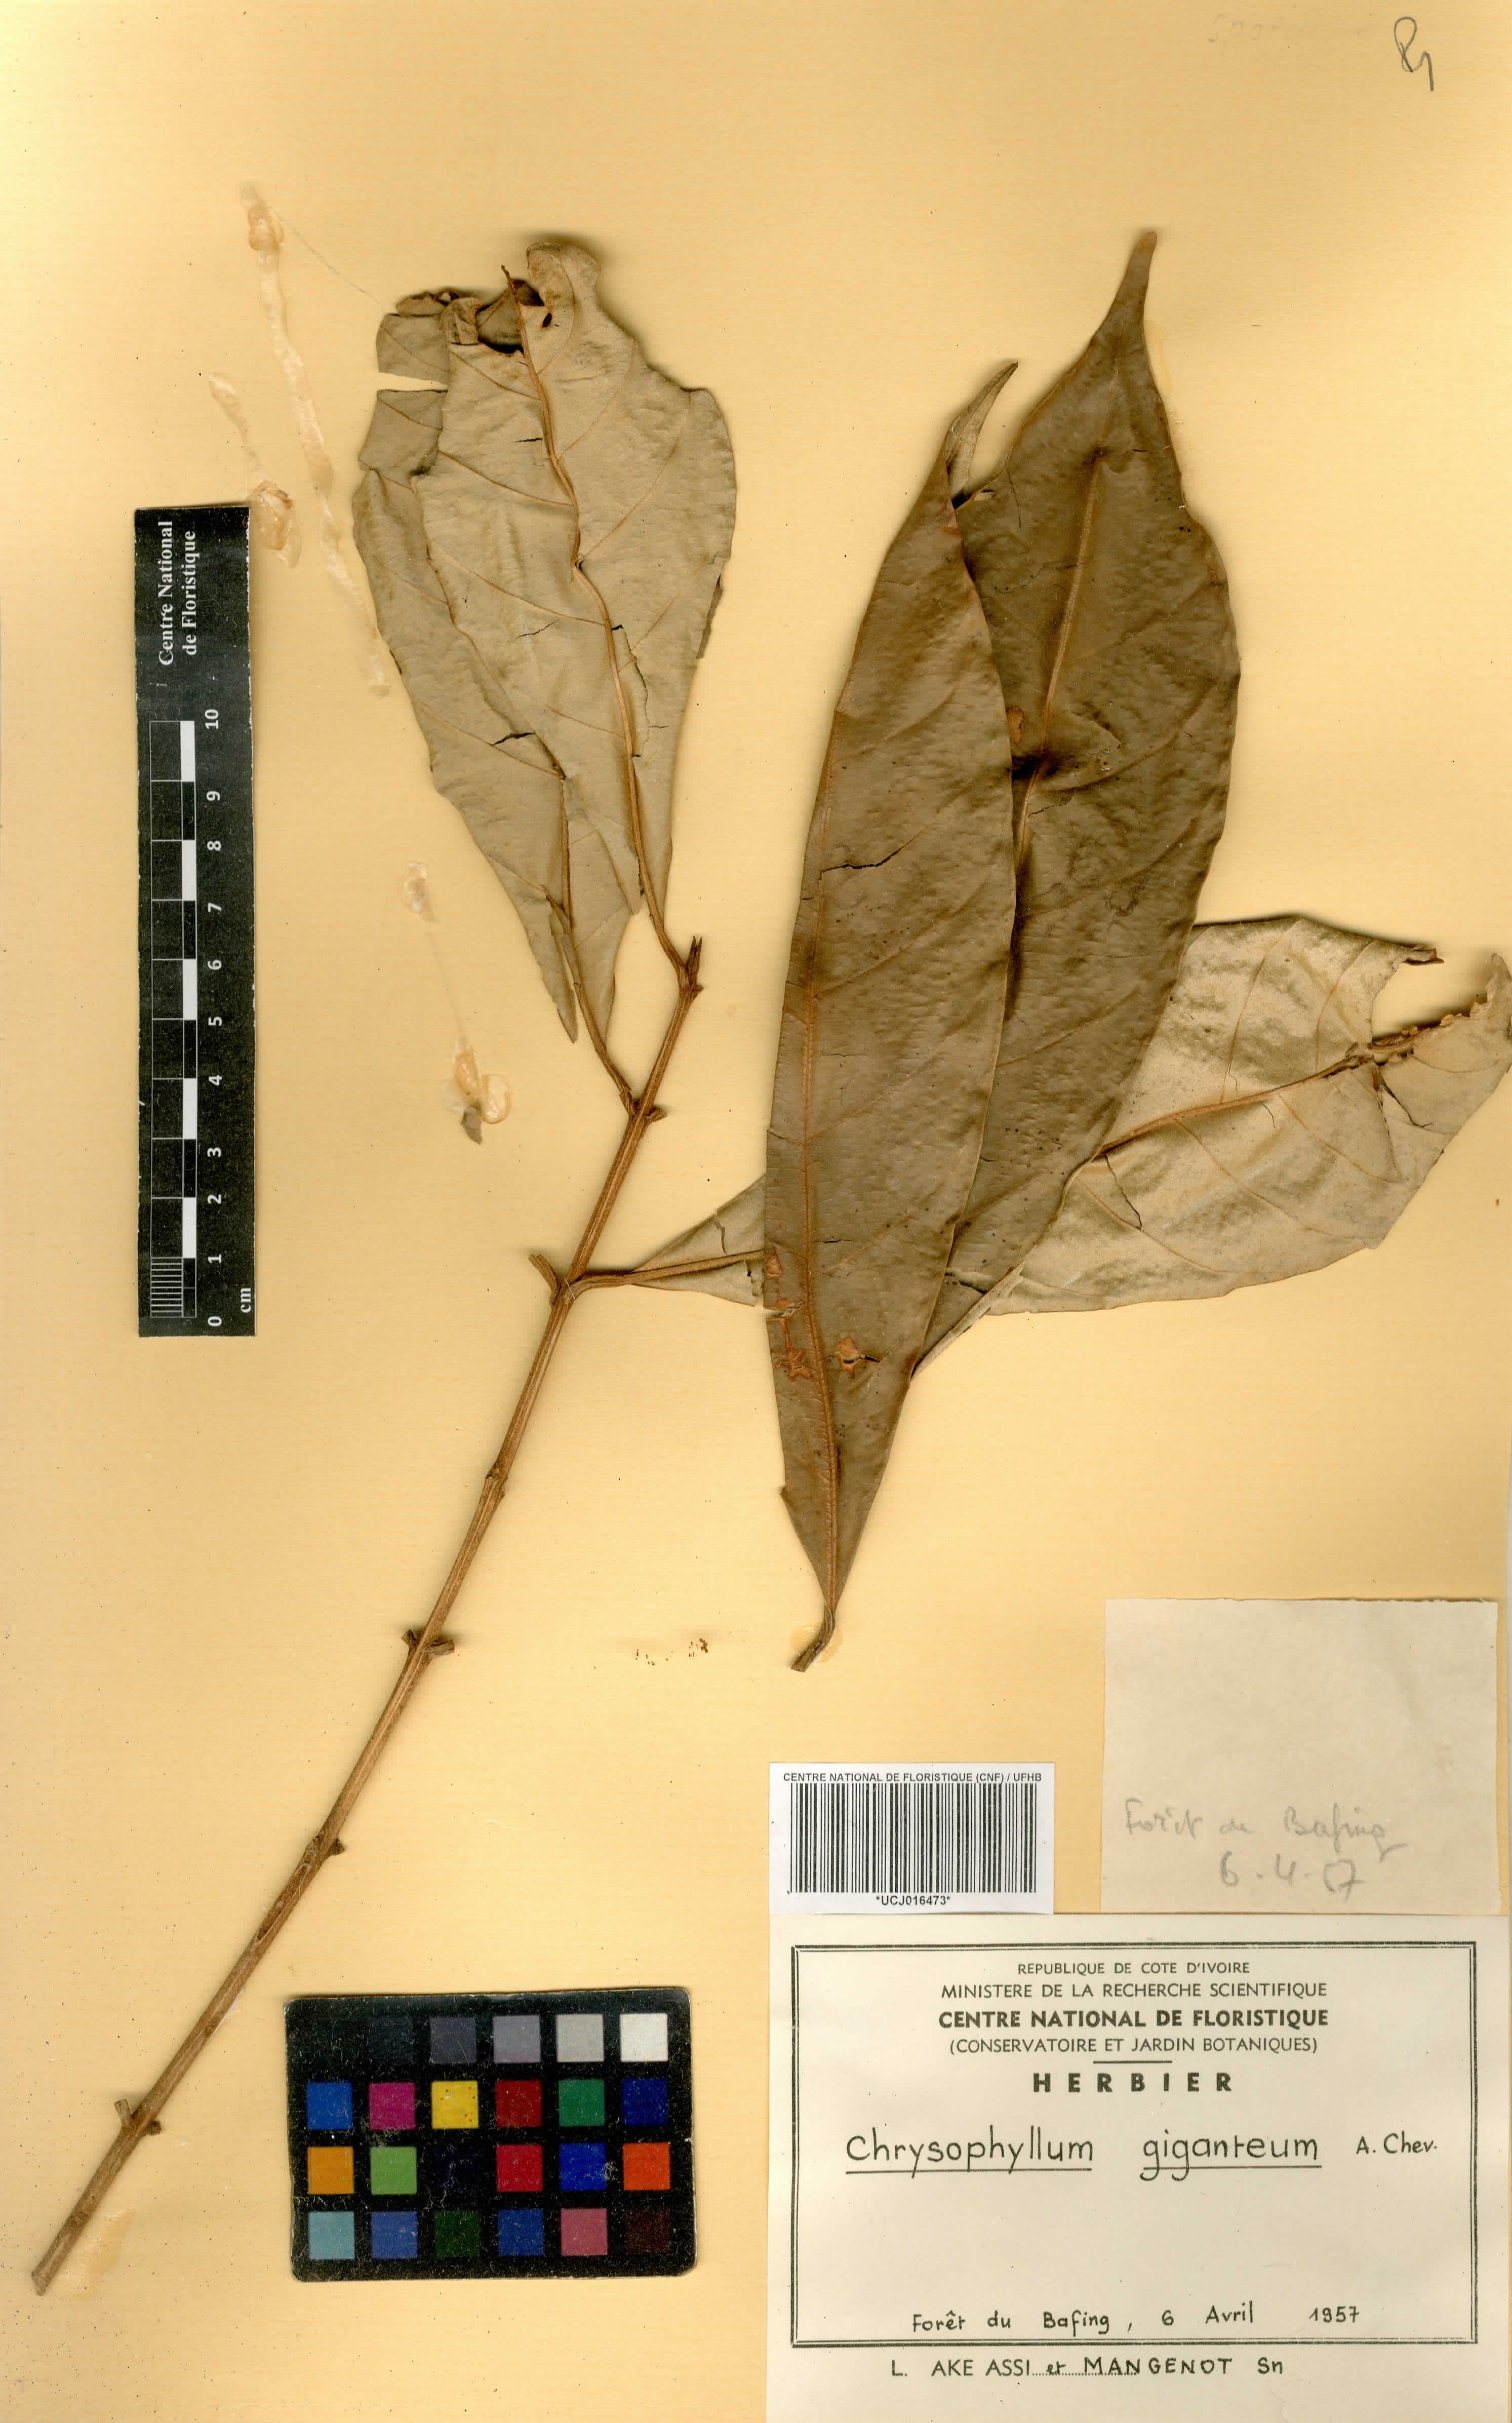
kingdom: Plantae
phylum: Tracheophyta
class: Magnoliopsida
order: Ericales
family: Sapotaceae
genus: Gambeya
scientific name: Gambeya gigantea
